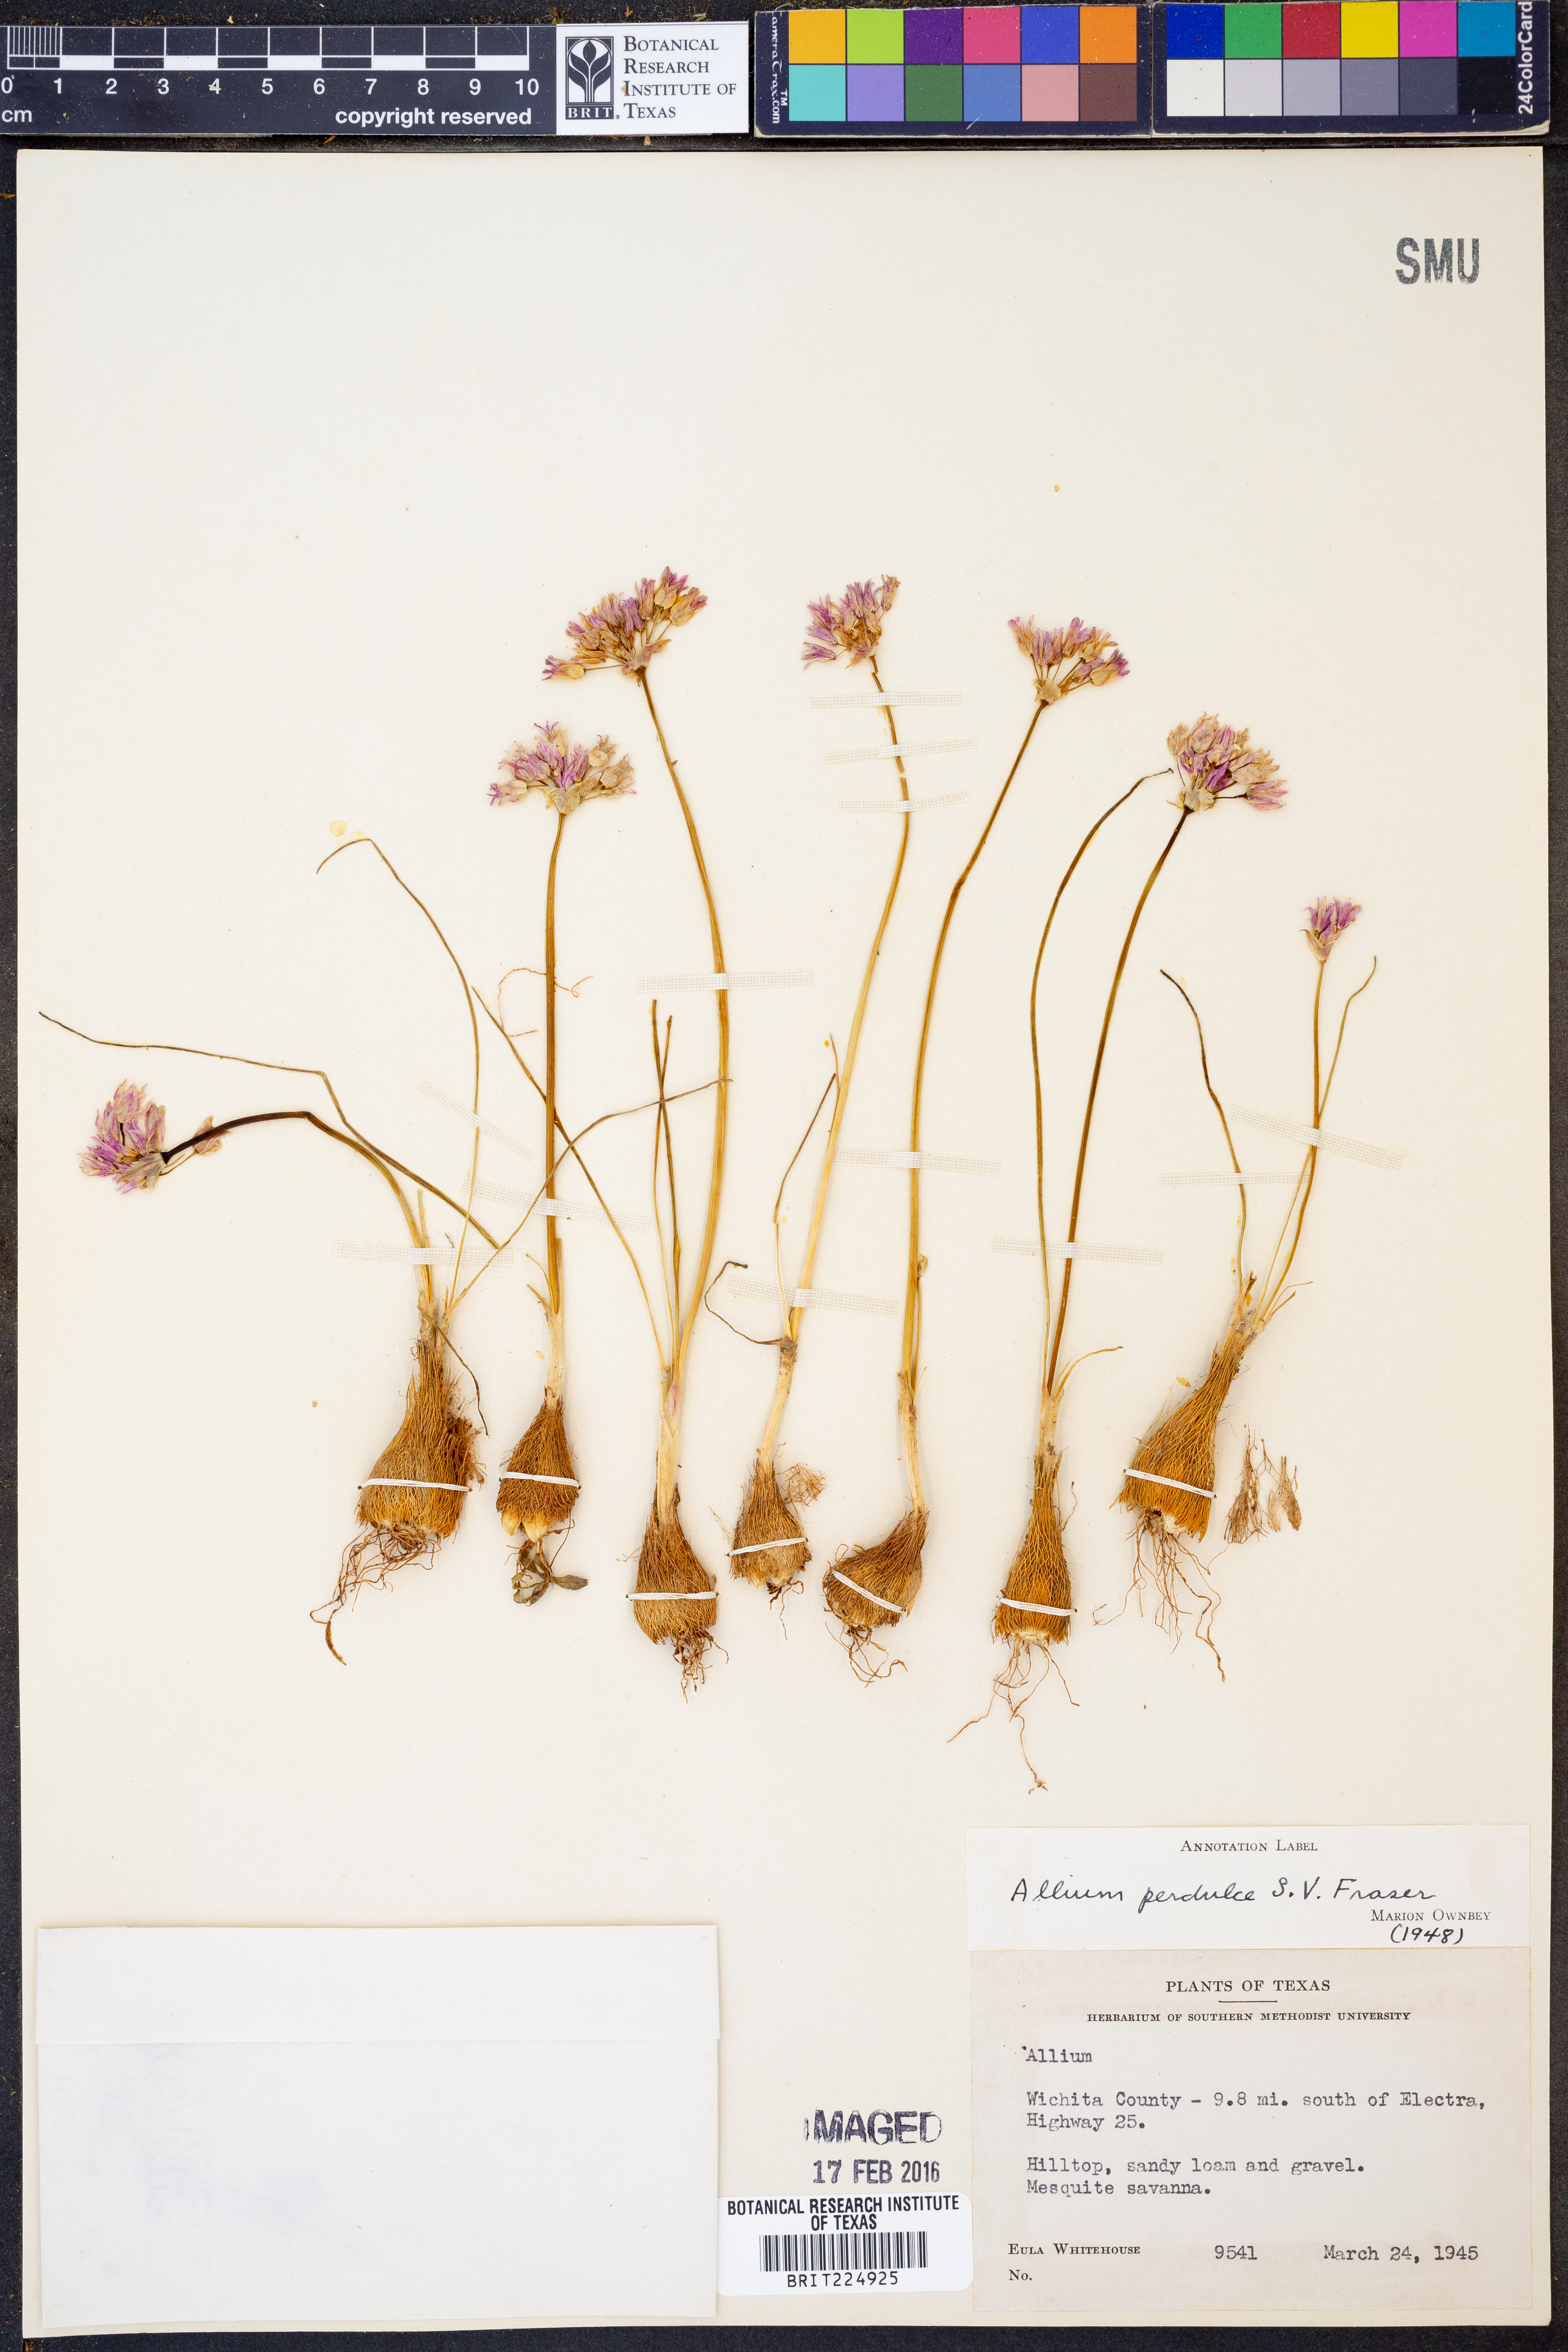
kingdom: Plantae
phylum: Tracheophyta
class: Liliopsida
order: Asparagales
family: Amaryllidaceae
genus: Allium
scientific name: Allium perdulce
